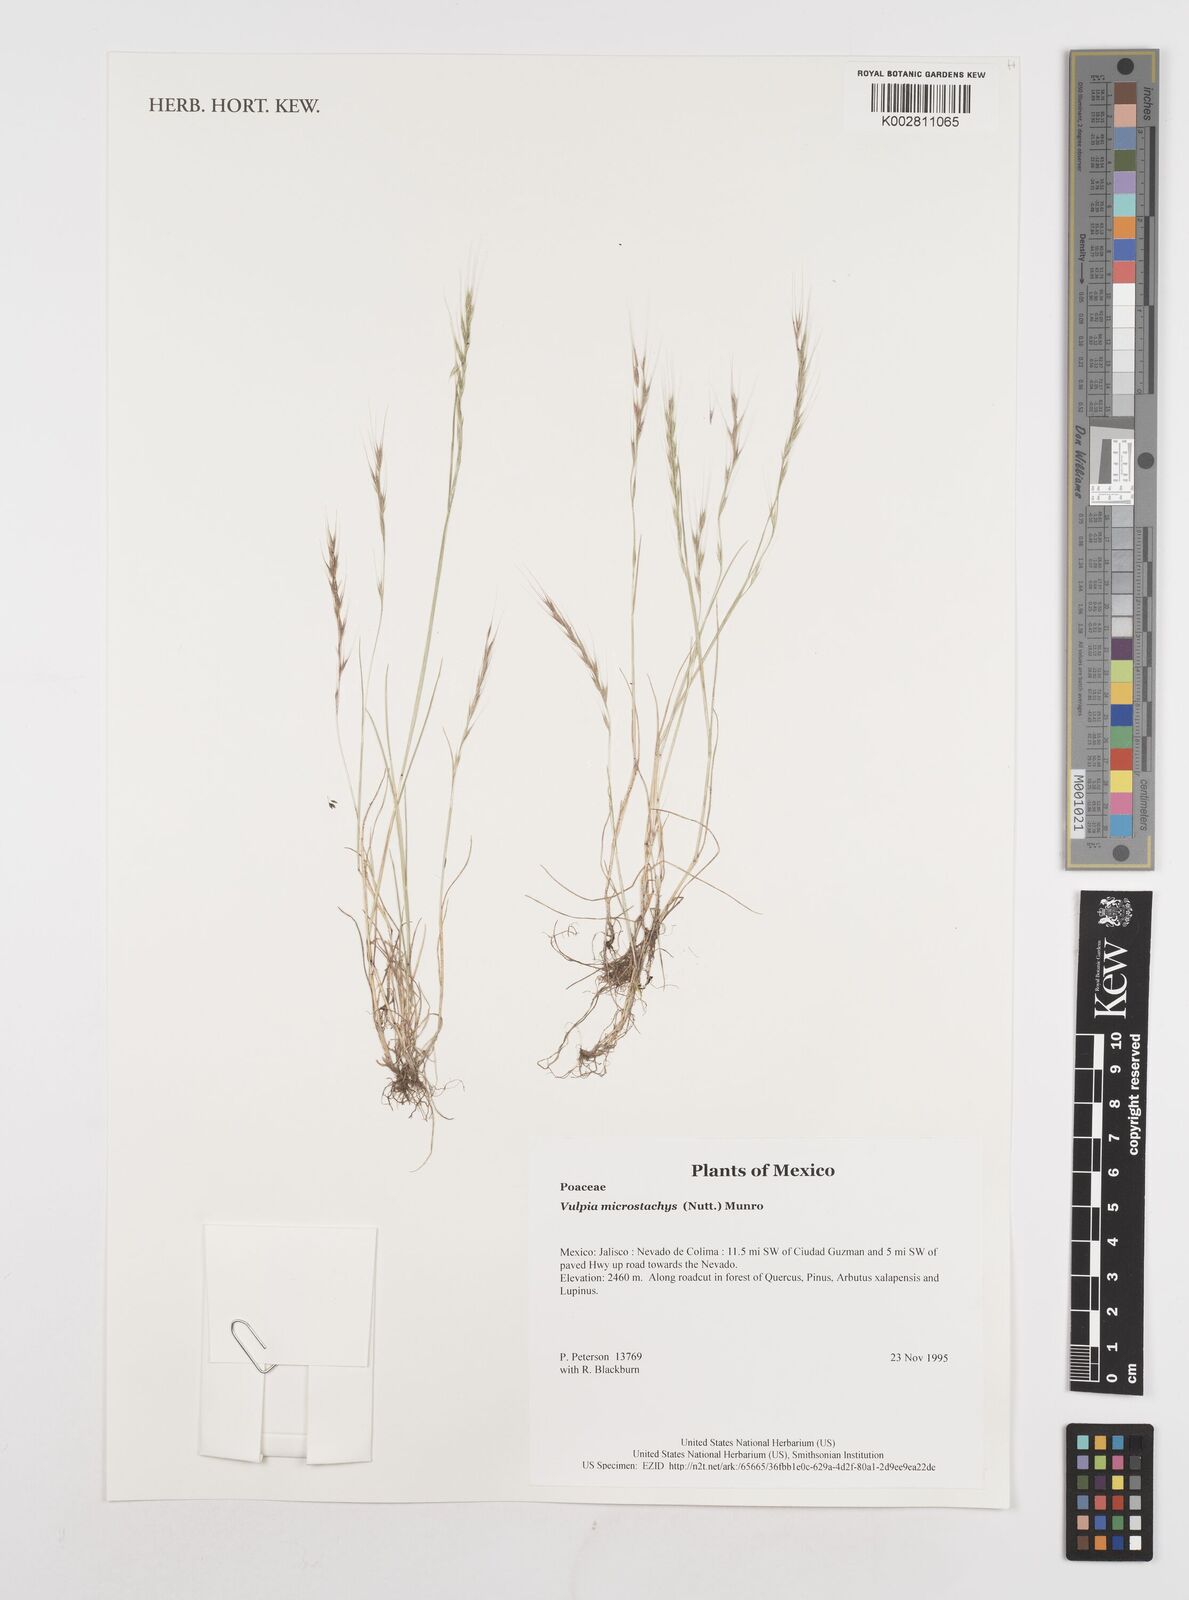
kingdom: Plantae
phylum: Tracheophyta
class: Liliopsida
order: Poales
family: Poaceae
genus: Festuca
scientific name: Festuca microstachys
